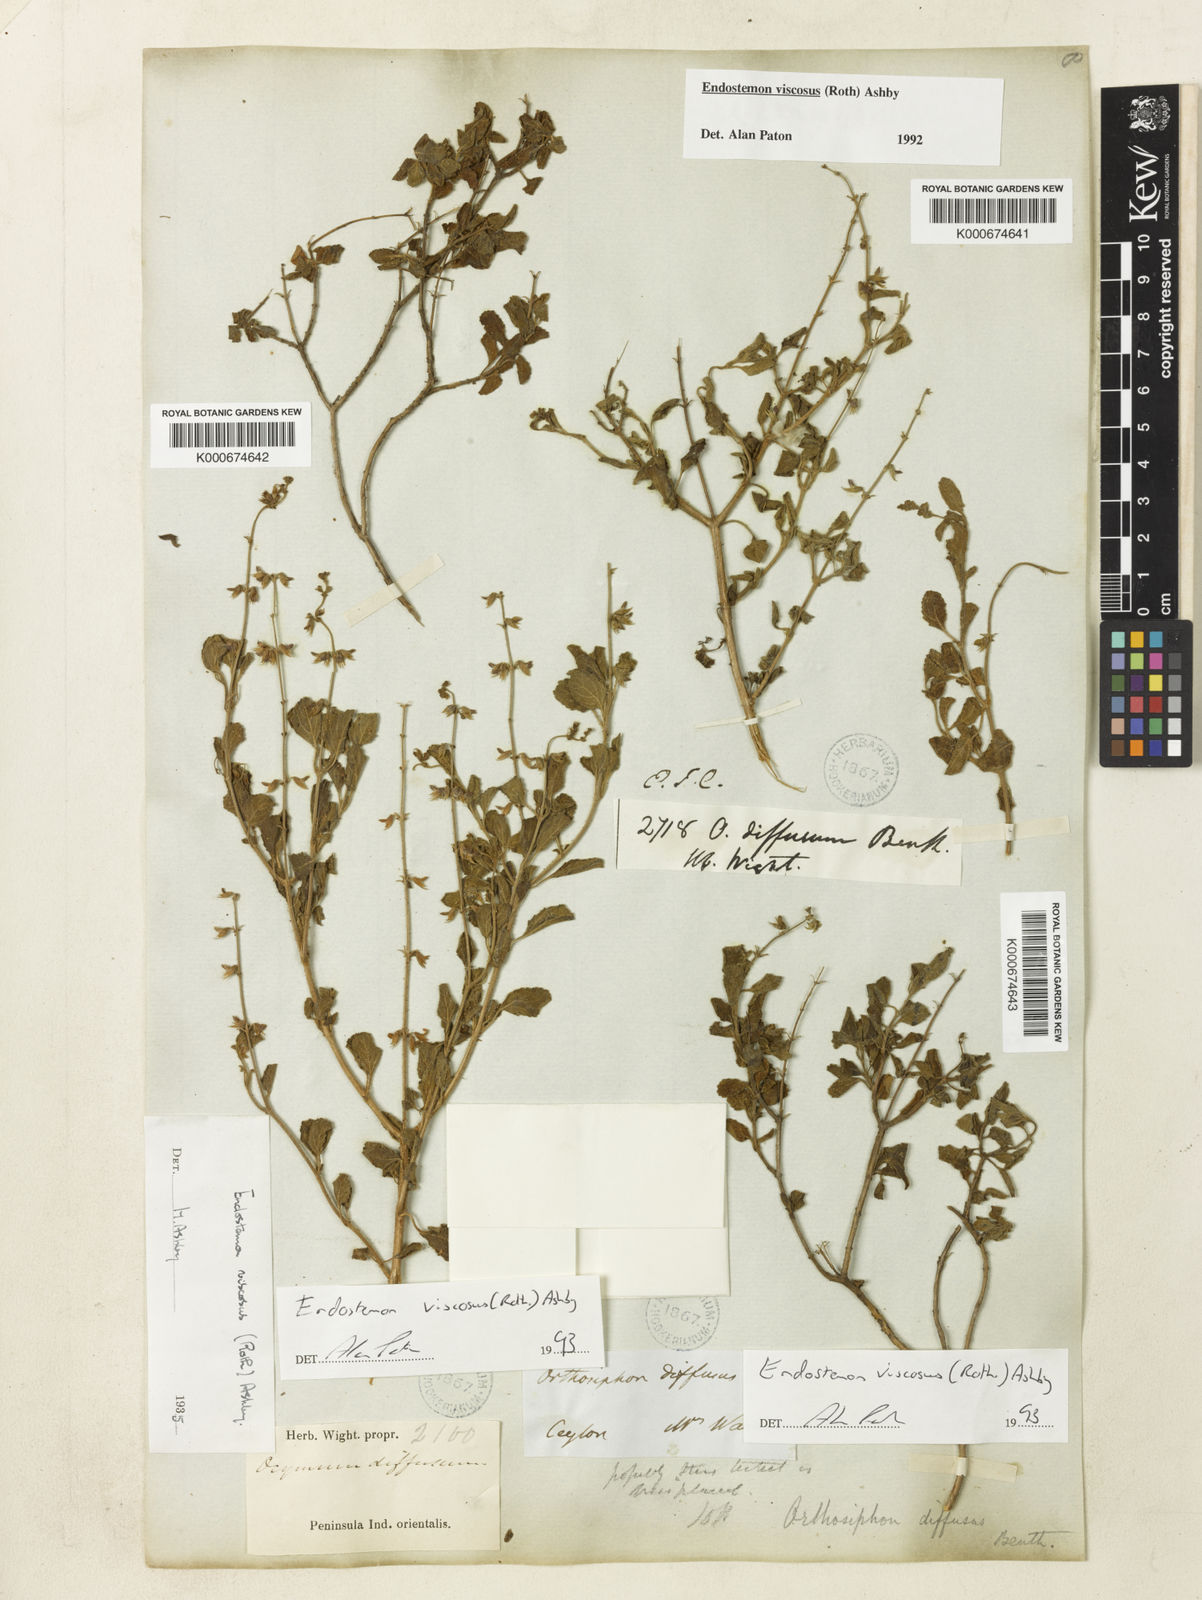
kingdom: Plantae
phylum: Tracheophyta
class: Magnoliopsida
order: Lamiales
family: Lamiaceae
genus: Endostemon
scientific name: Endostemon viscosus
